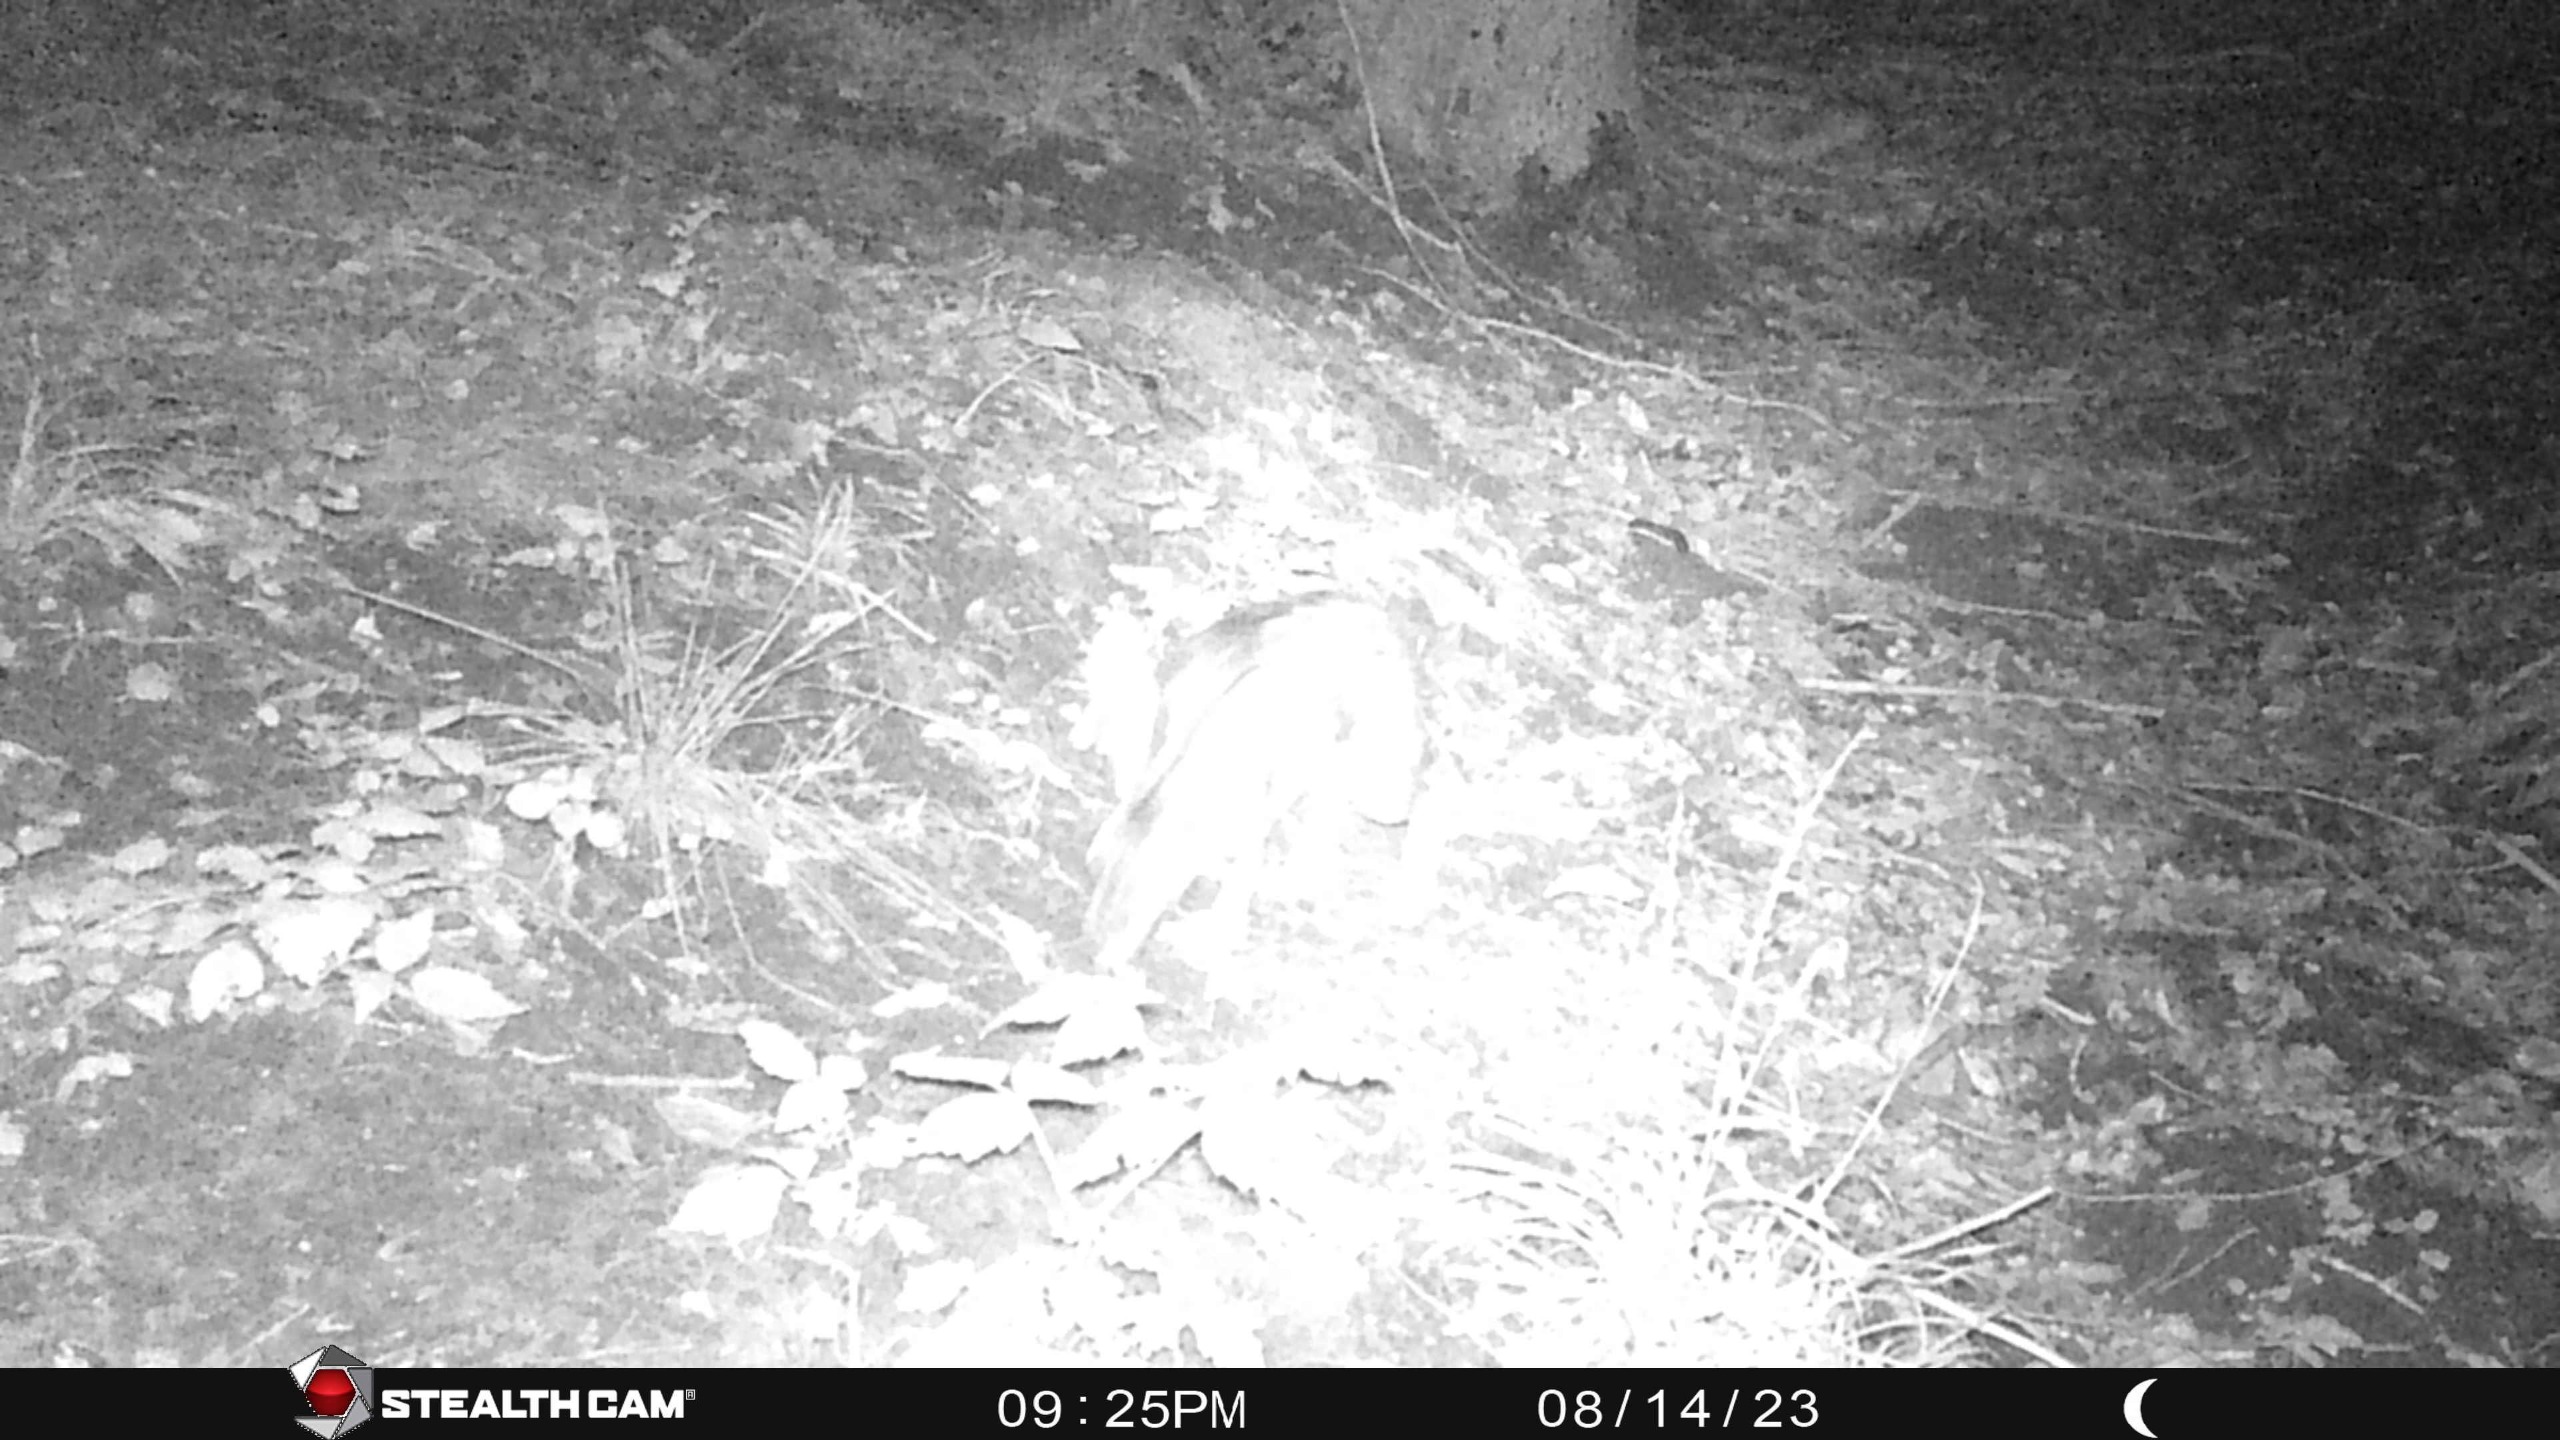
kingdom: Animalia
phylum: Chordata
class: Mammalia
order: Lagomorpha
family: Leporidae
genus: Lepus
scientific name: Lepus europaeus
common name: Hare
